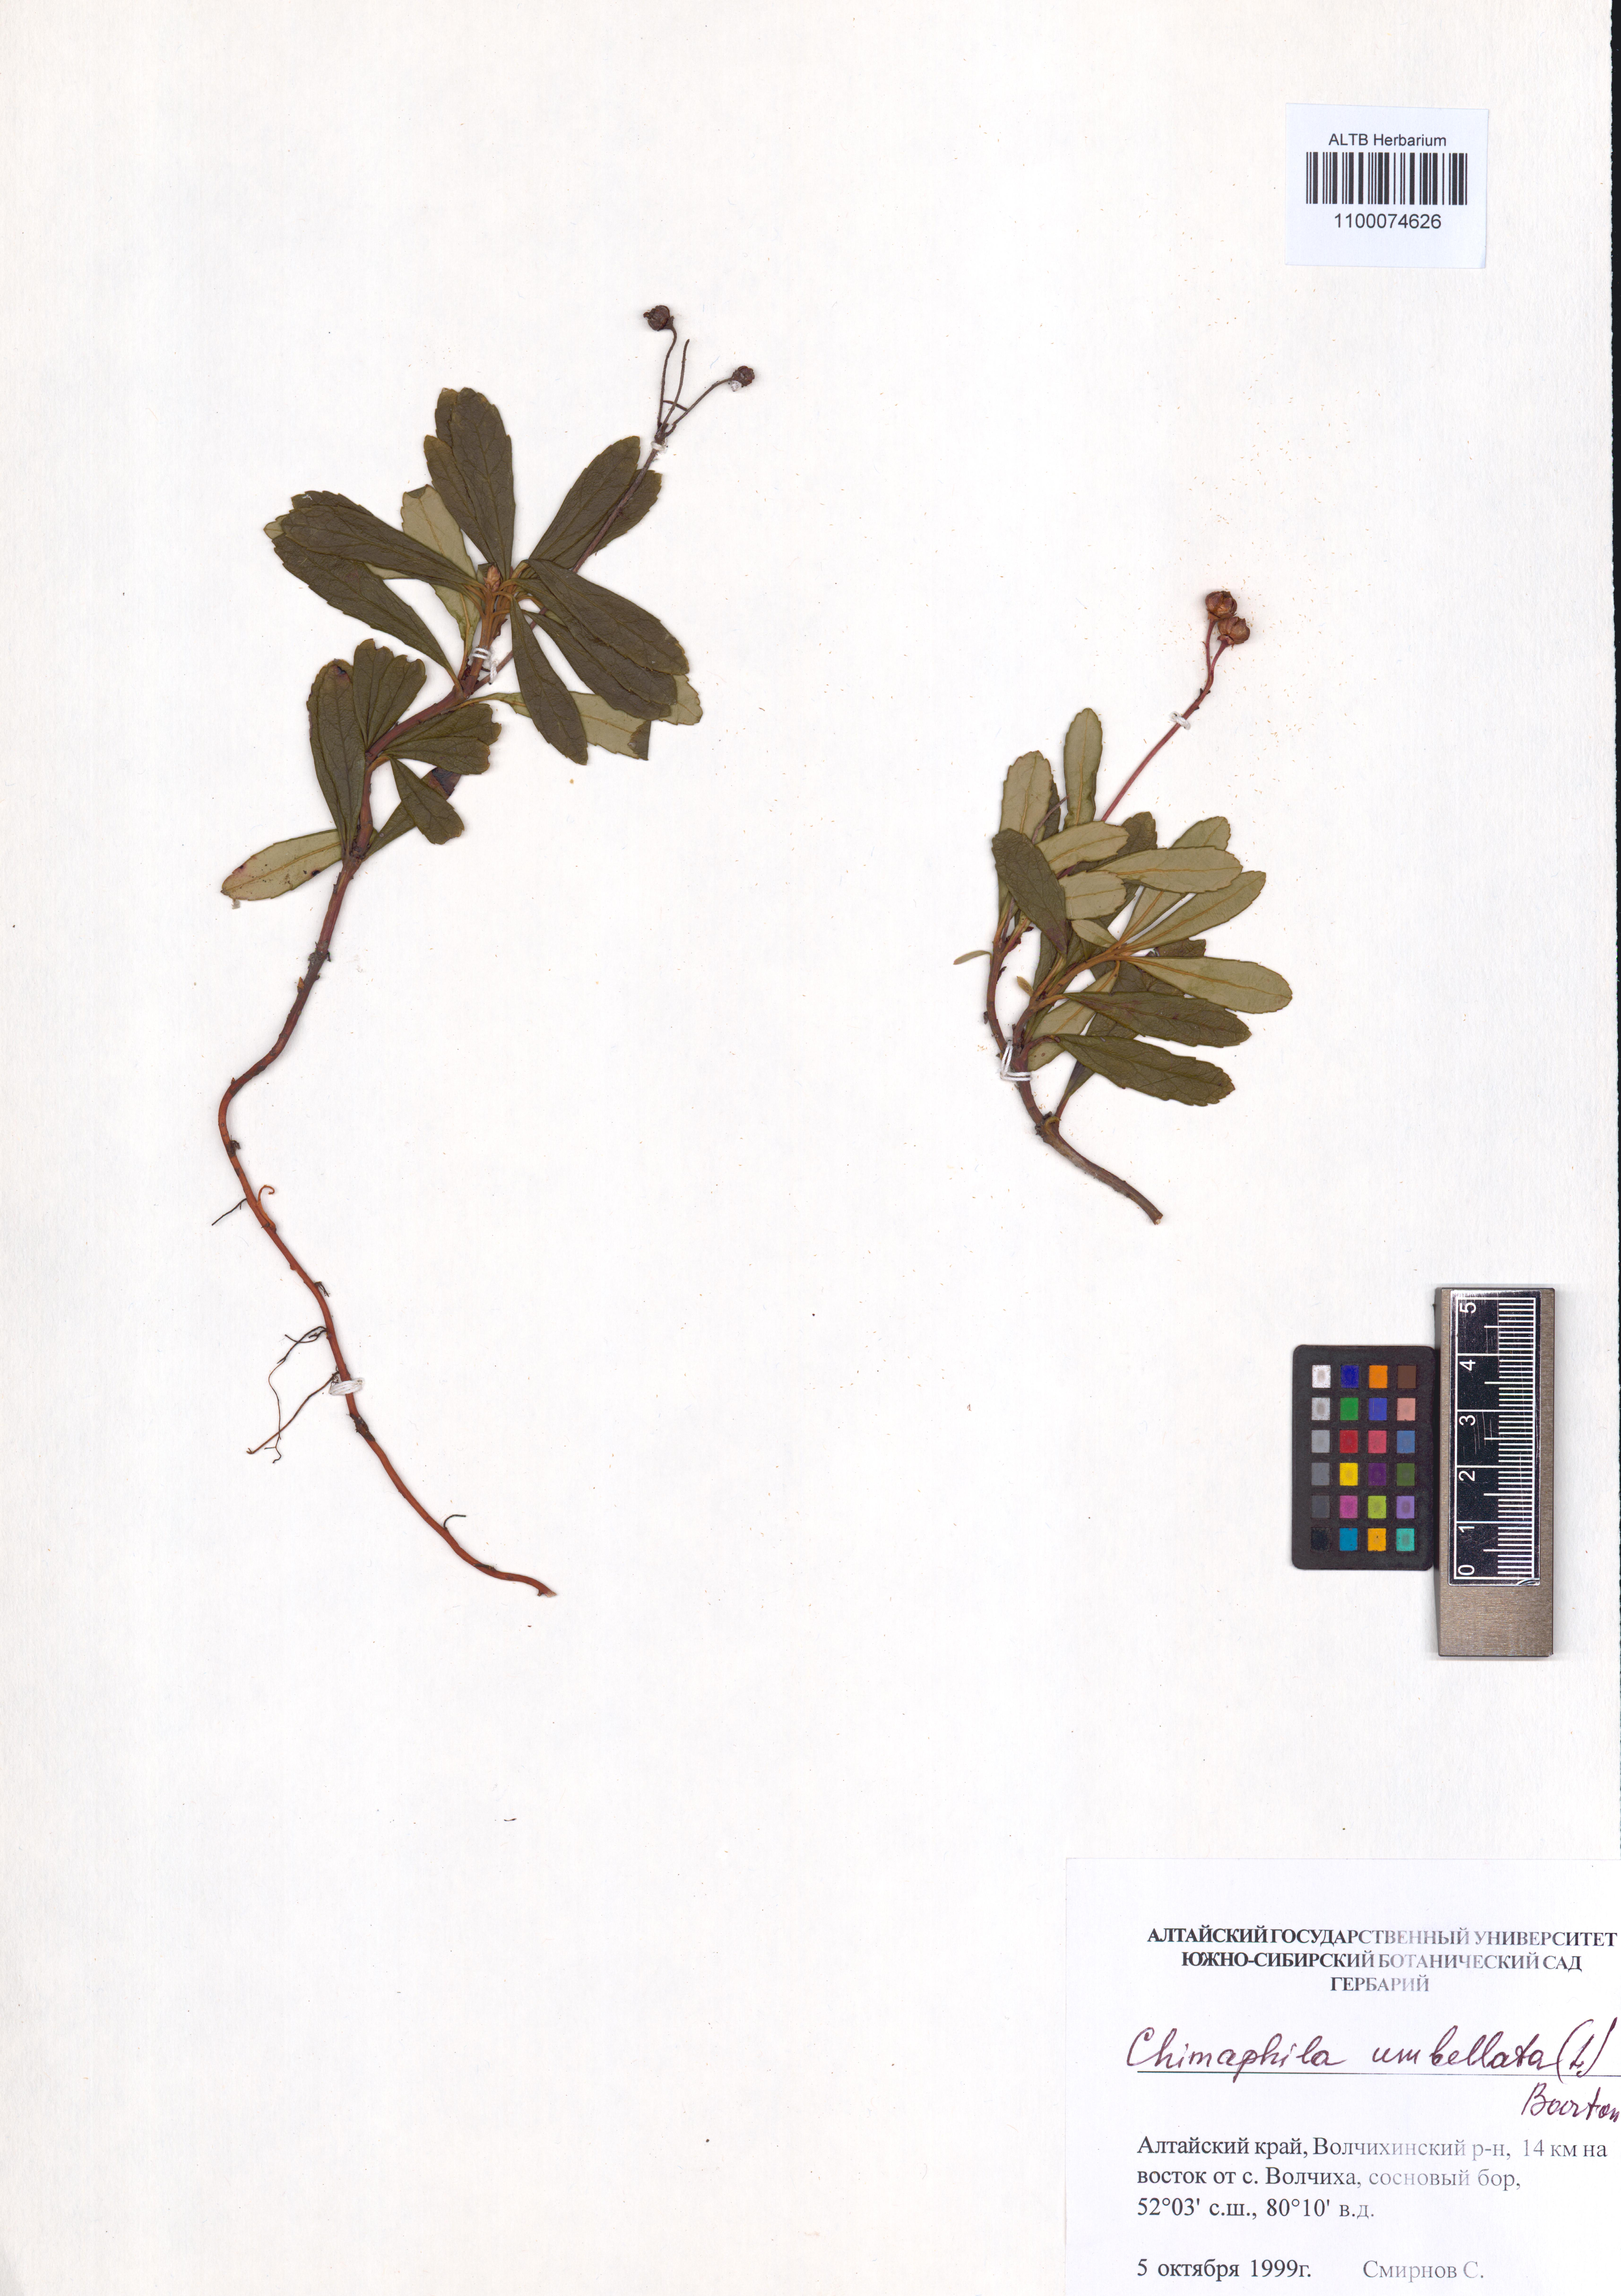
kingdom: Plantae
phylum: Tracheophyta
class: Magnoliopsida
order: Ericales
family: Ericaceae
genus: Chimaphila
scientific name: Chimaphila umbellata
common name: Pipsissewa
